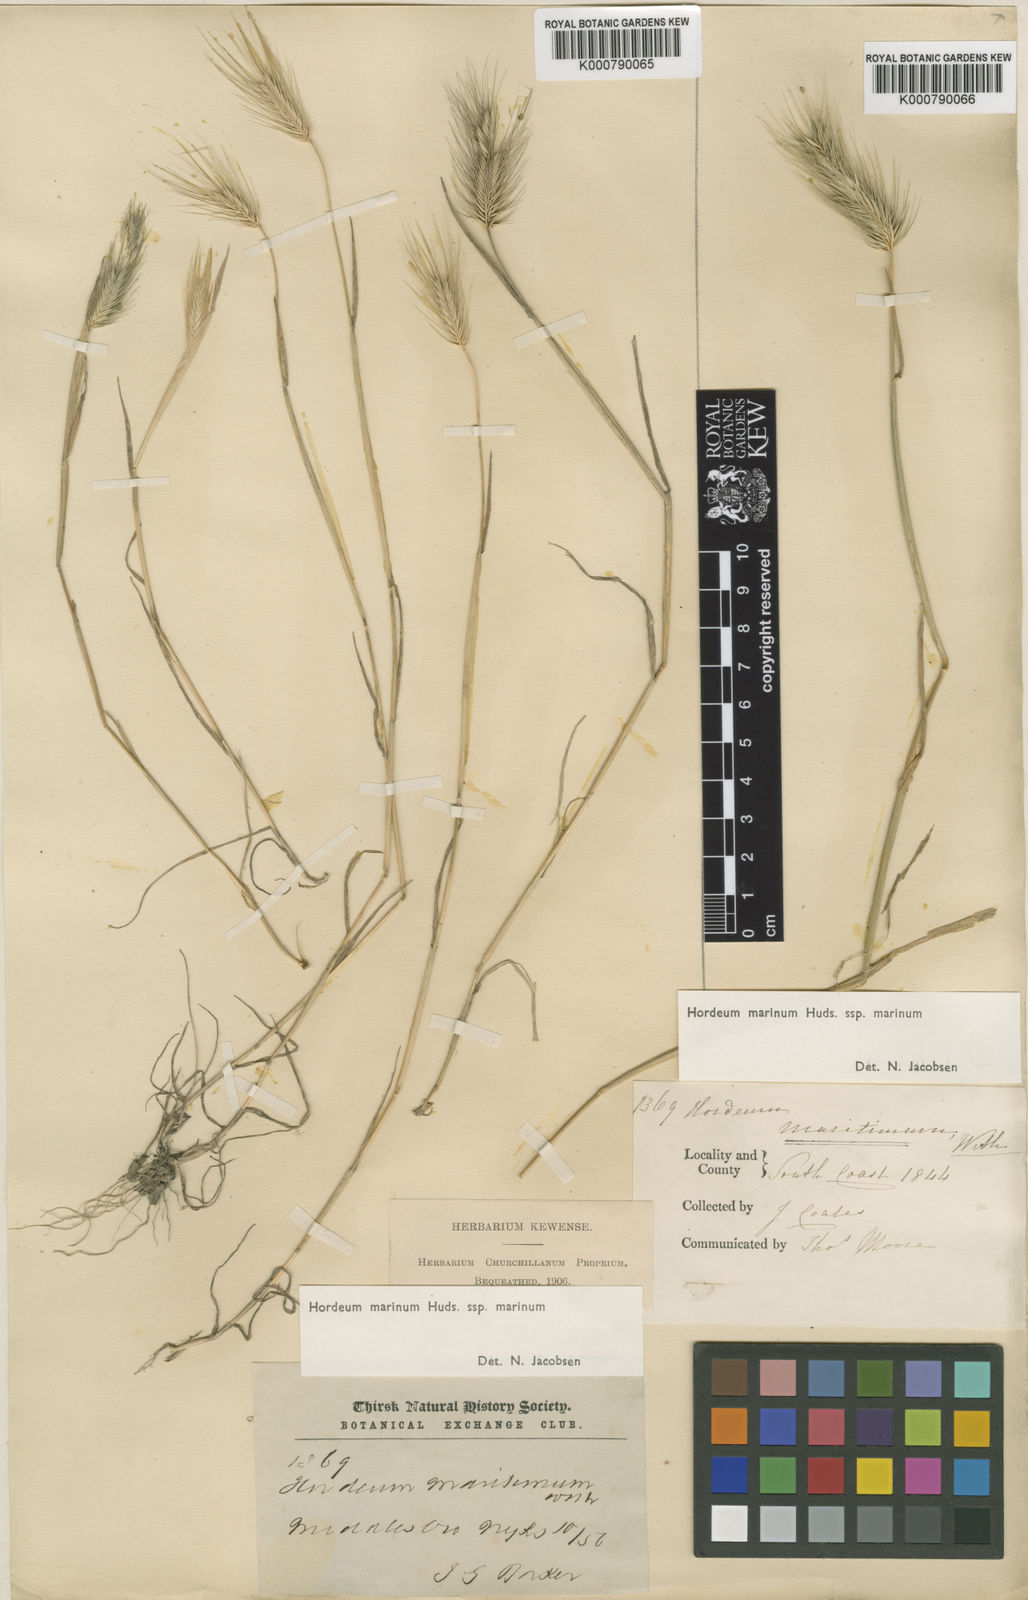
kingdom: Plantae
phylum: Tracheophyta
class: Liliopsida
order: Poales
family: Poaceae
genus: Hordeum
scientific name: Hordeum marinum
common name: Sea barley
